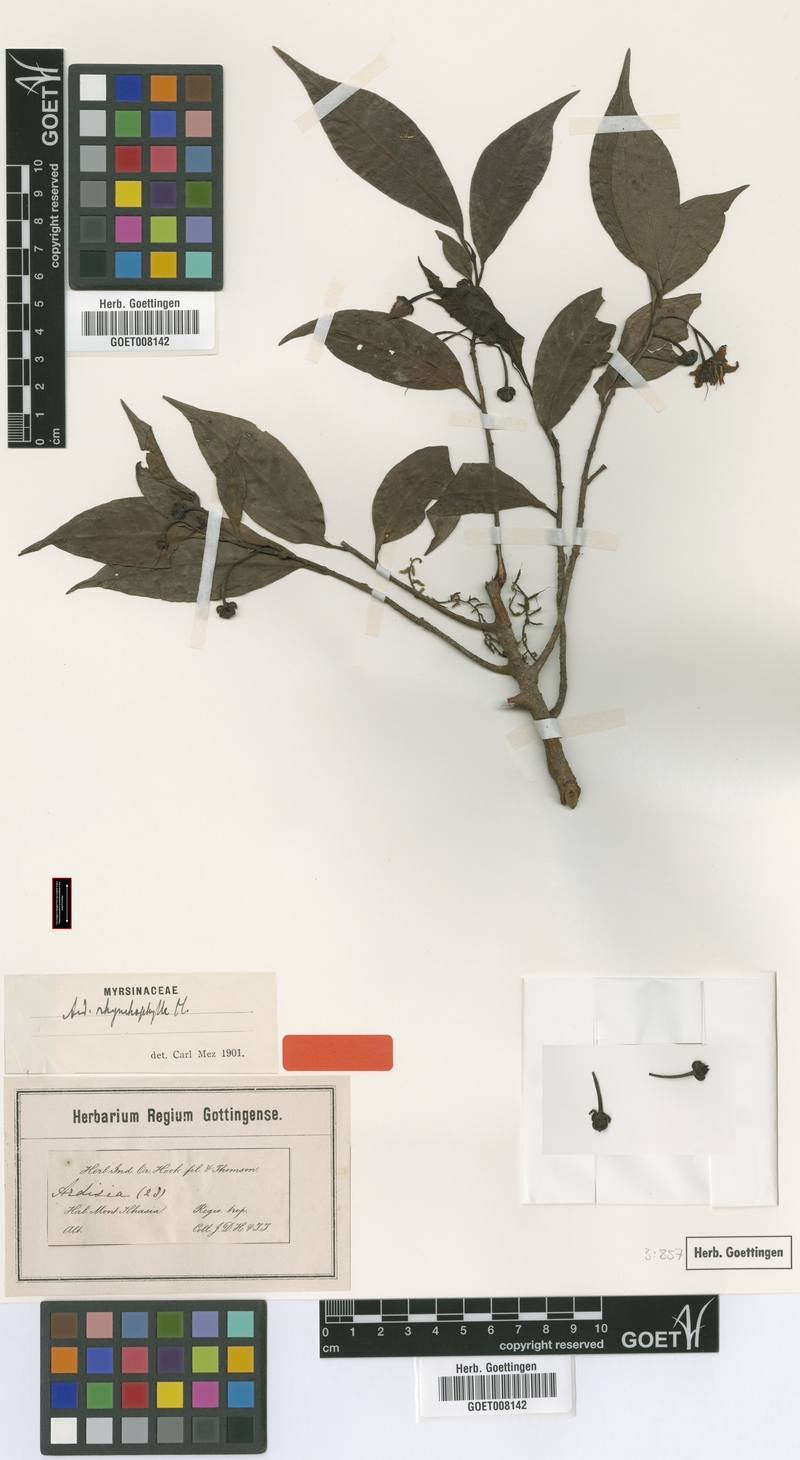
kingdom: Plantae
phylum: Tracheophyta
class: Magnoliopsida
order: Ericales
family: Primulaceae
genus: Ardisia
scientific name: Ardisia rhynchophylla
